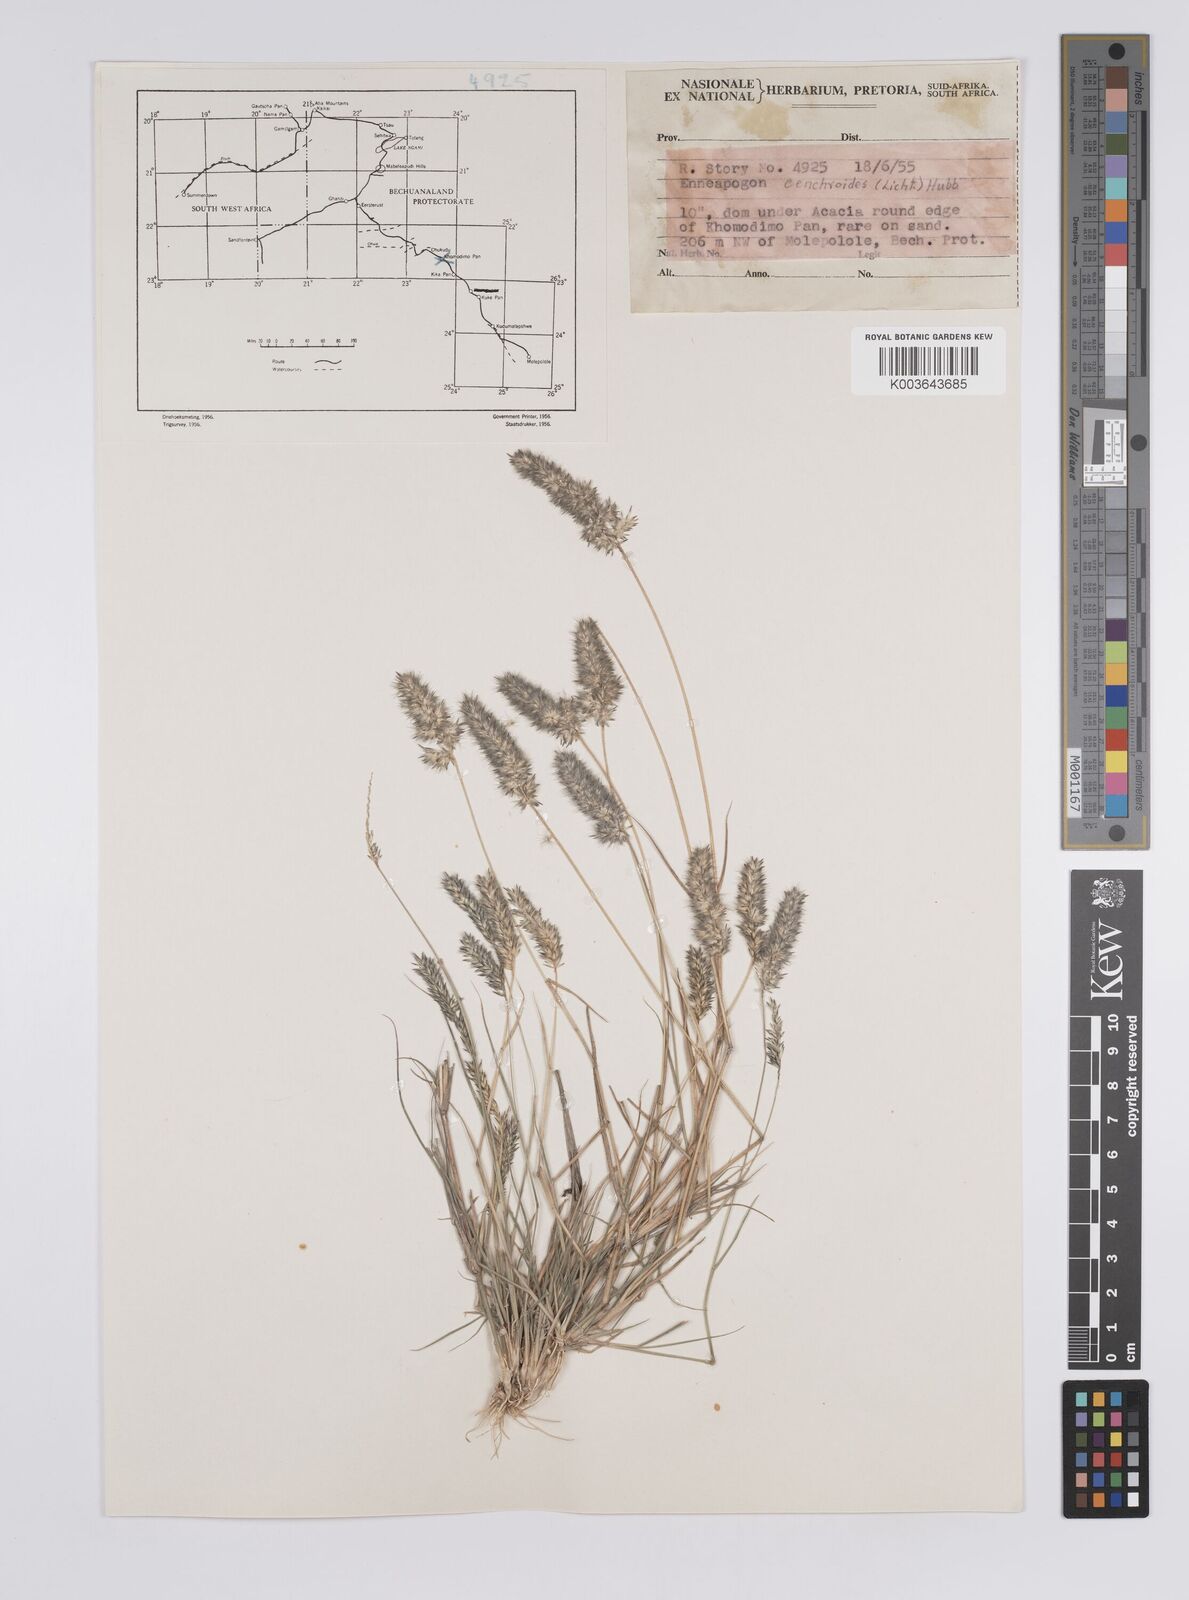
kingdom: Plantae
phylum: Tracheophyta
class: Liliopsida
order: Poales
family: Poaceae
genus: Enneapogon
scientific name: Enneapogon cenchroides
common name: Soft feather pappusgrass
